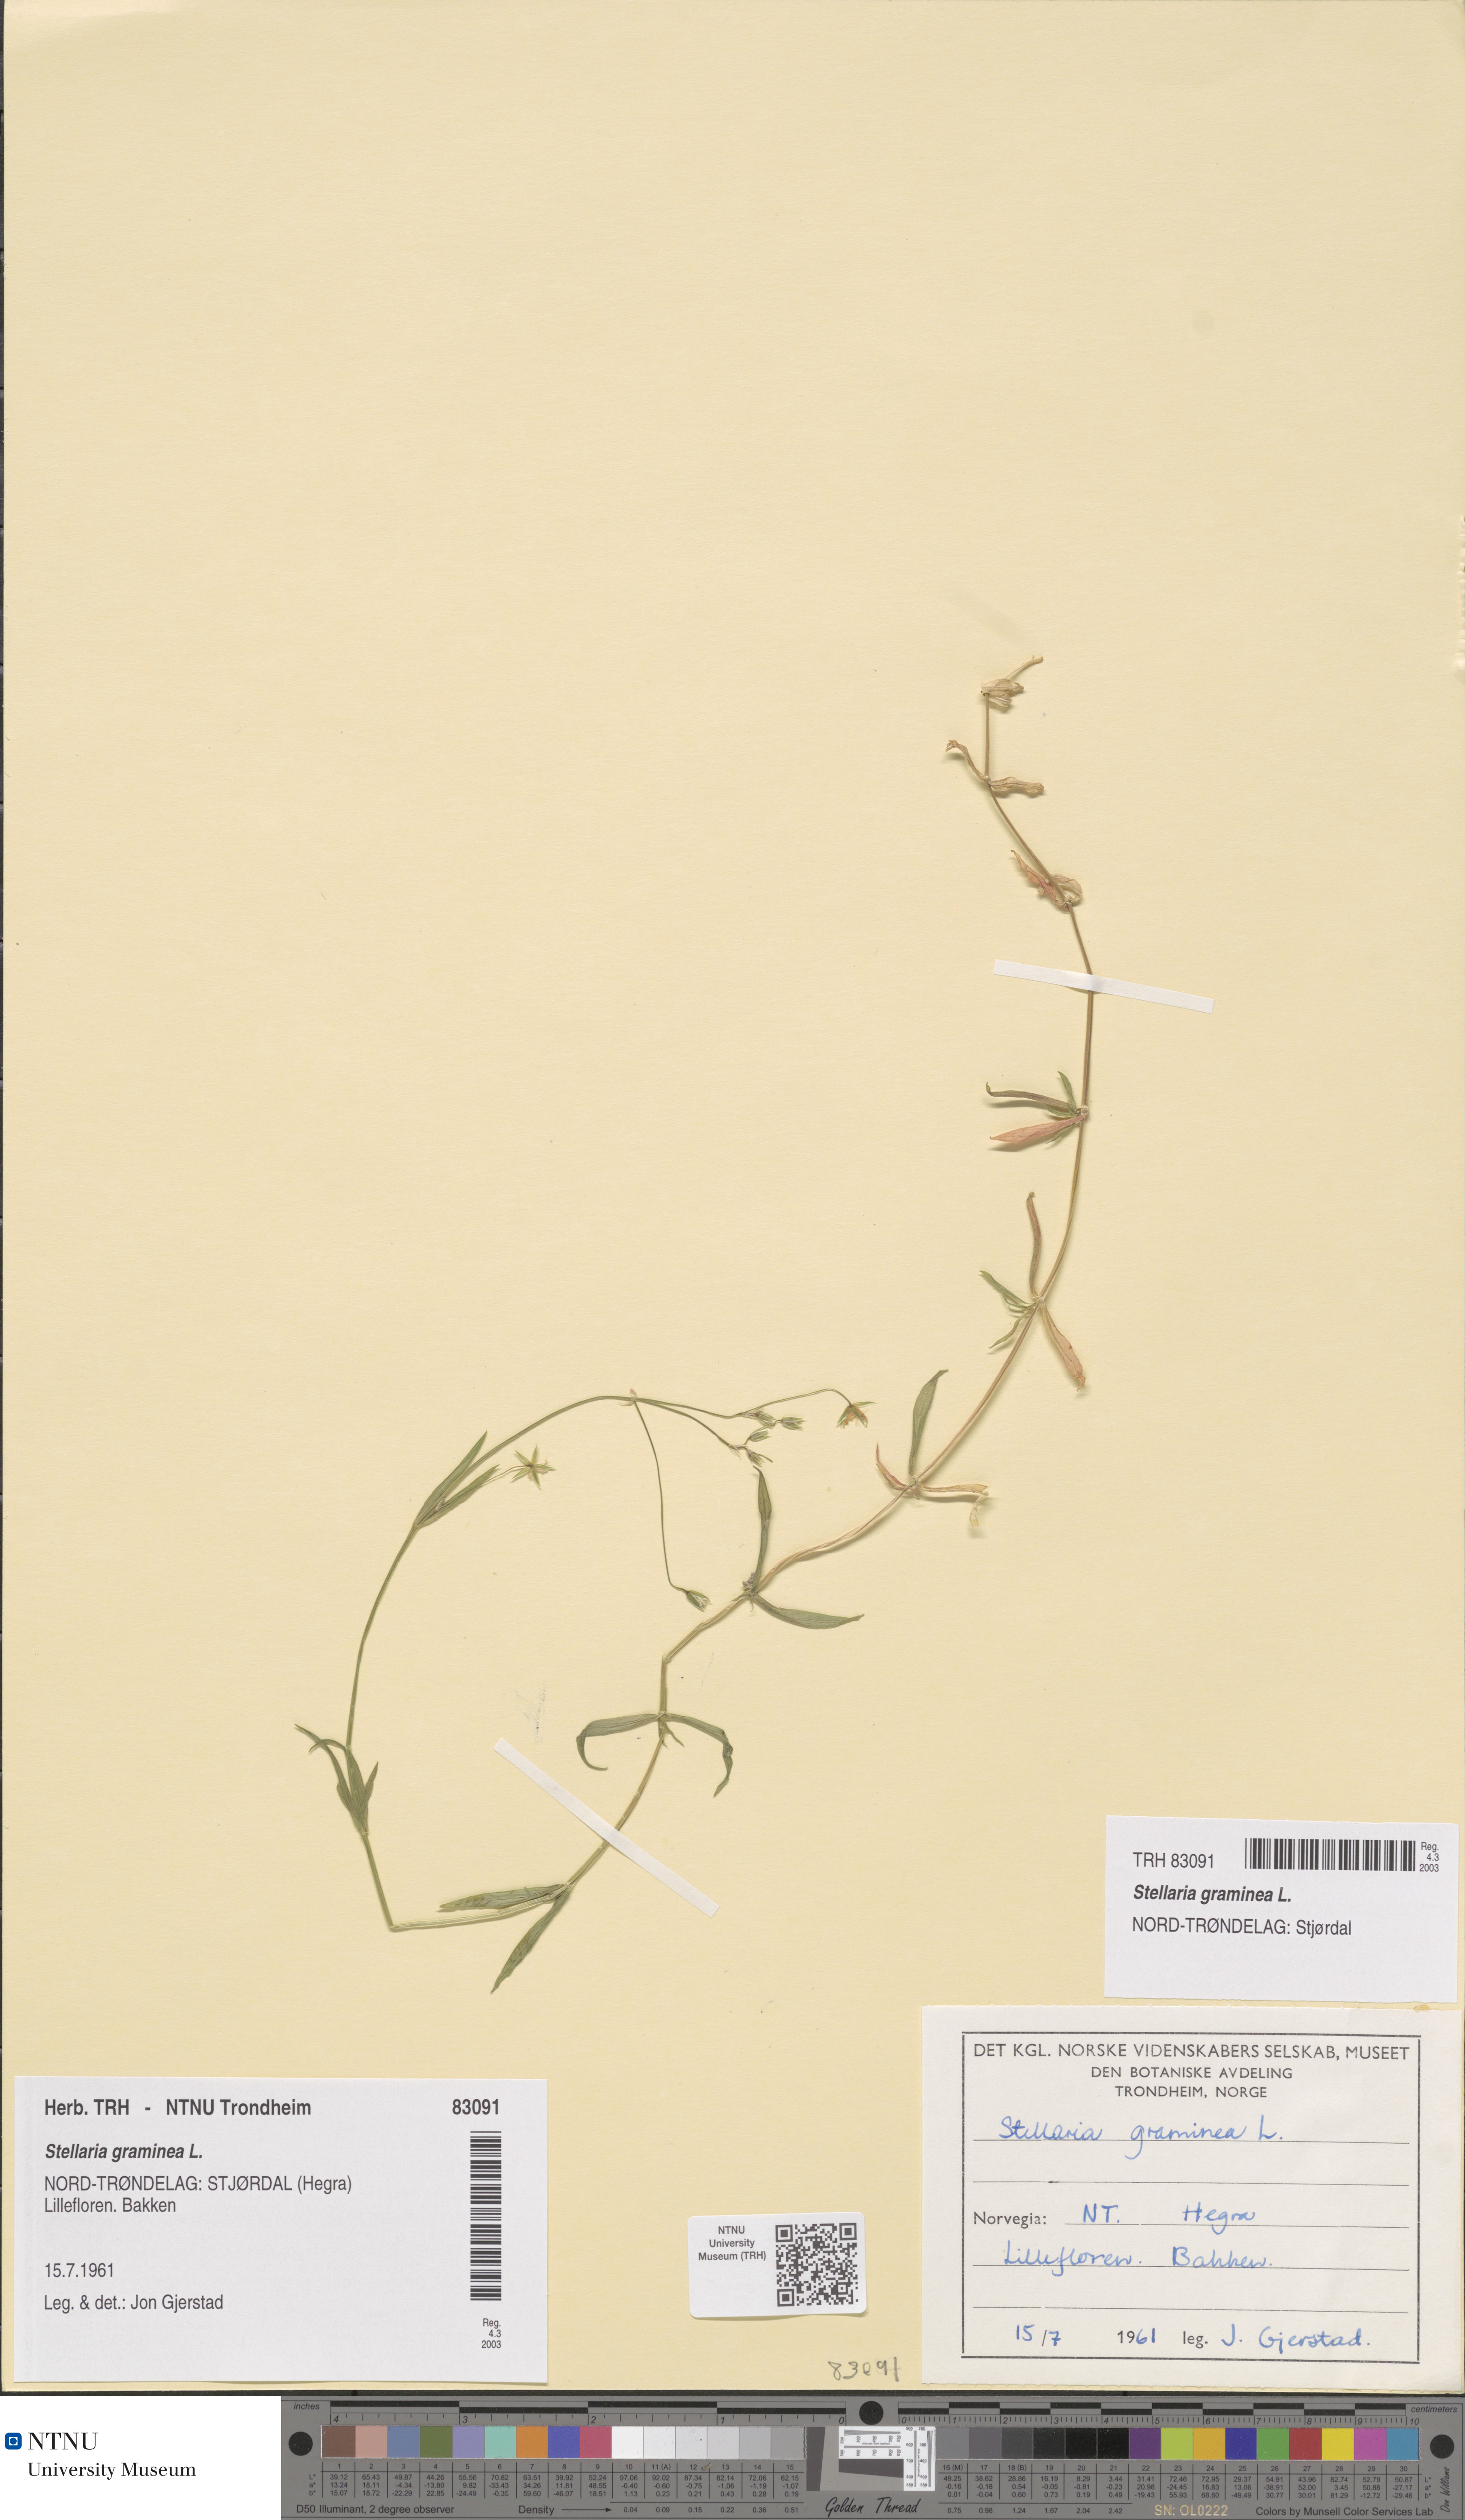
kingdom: Plantae
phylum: Tracheophyta
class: Magnoliopsida
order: Caryophyllales
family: Caryophyllaceae
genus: Stellaria
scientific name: Stellaria graminea
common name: Grass-like starwort
